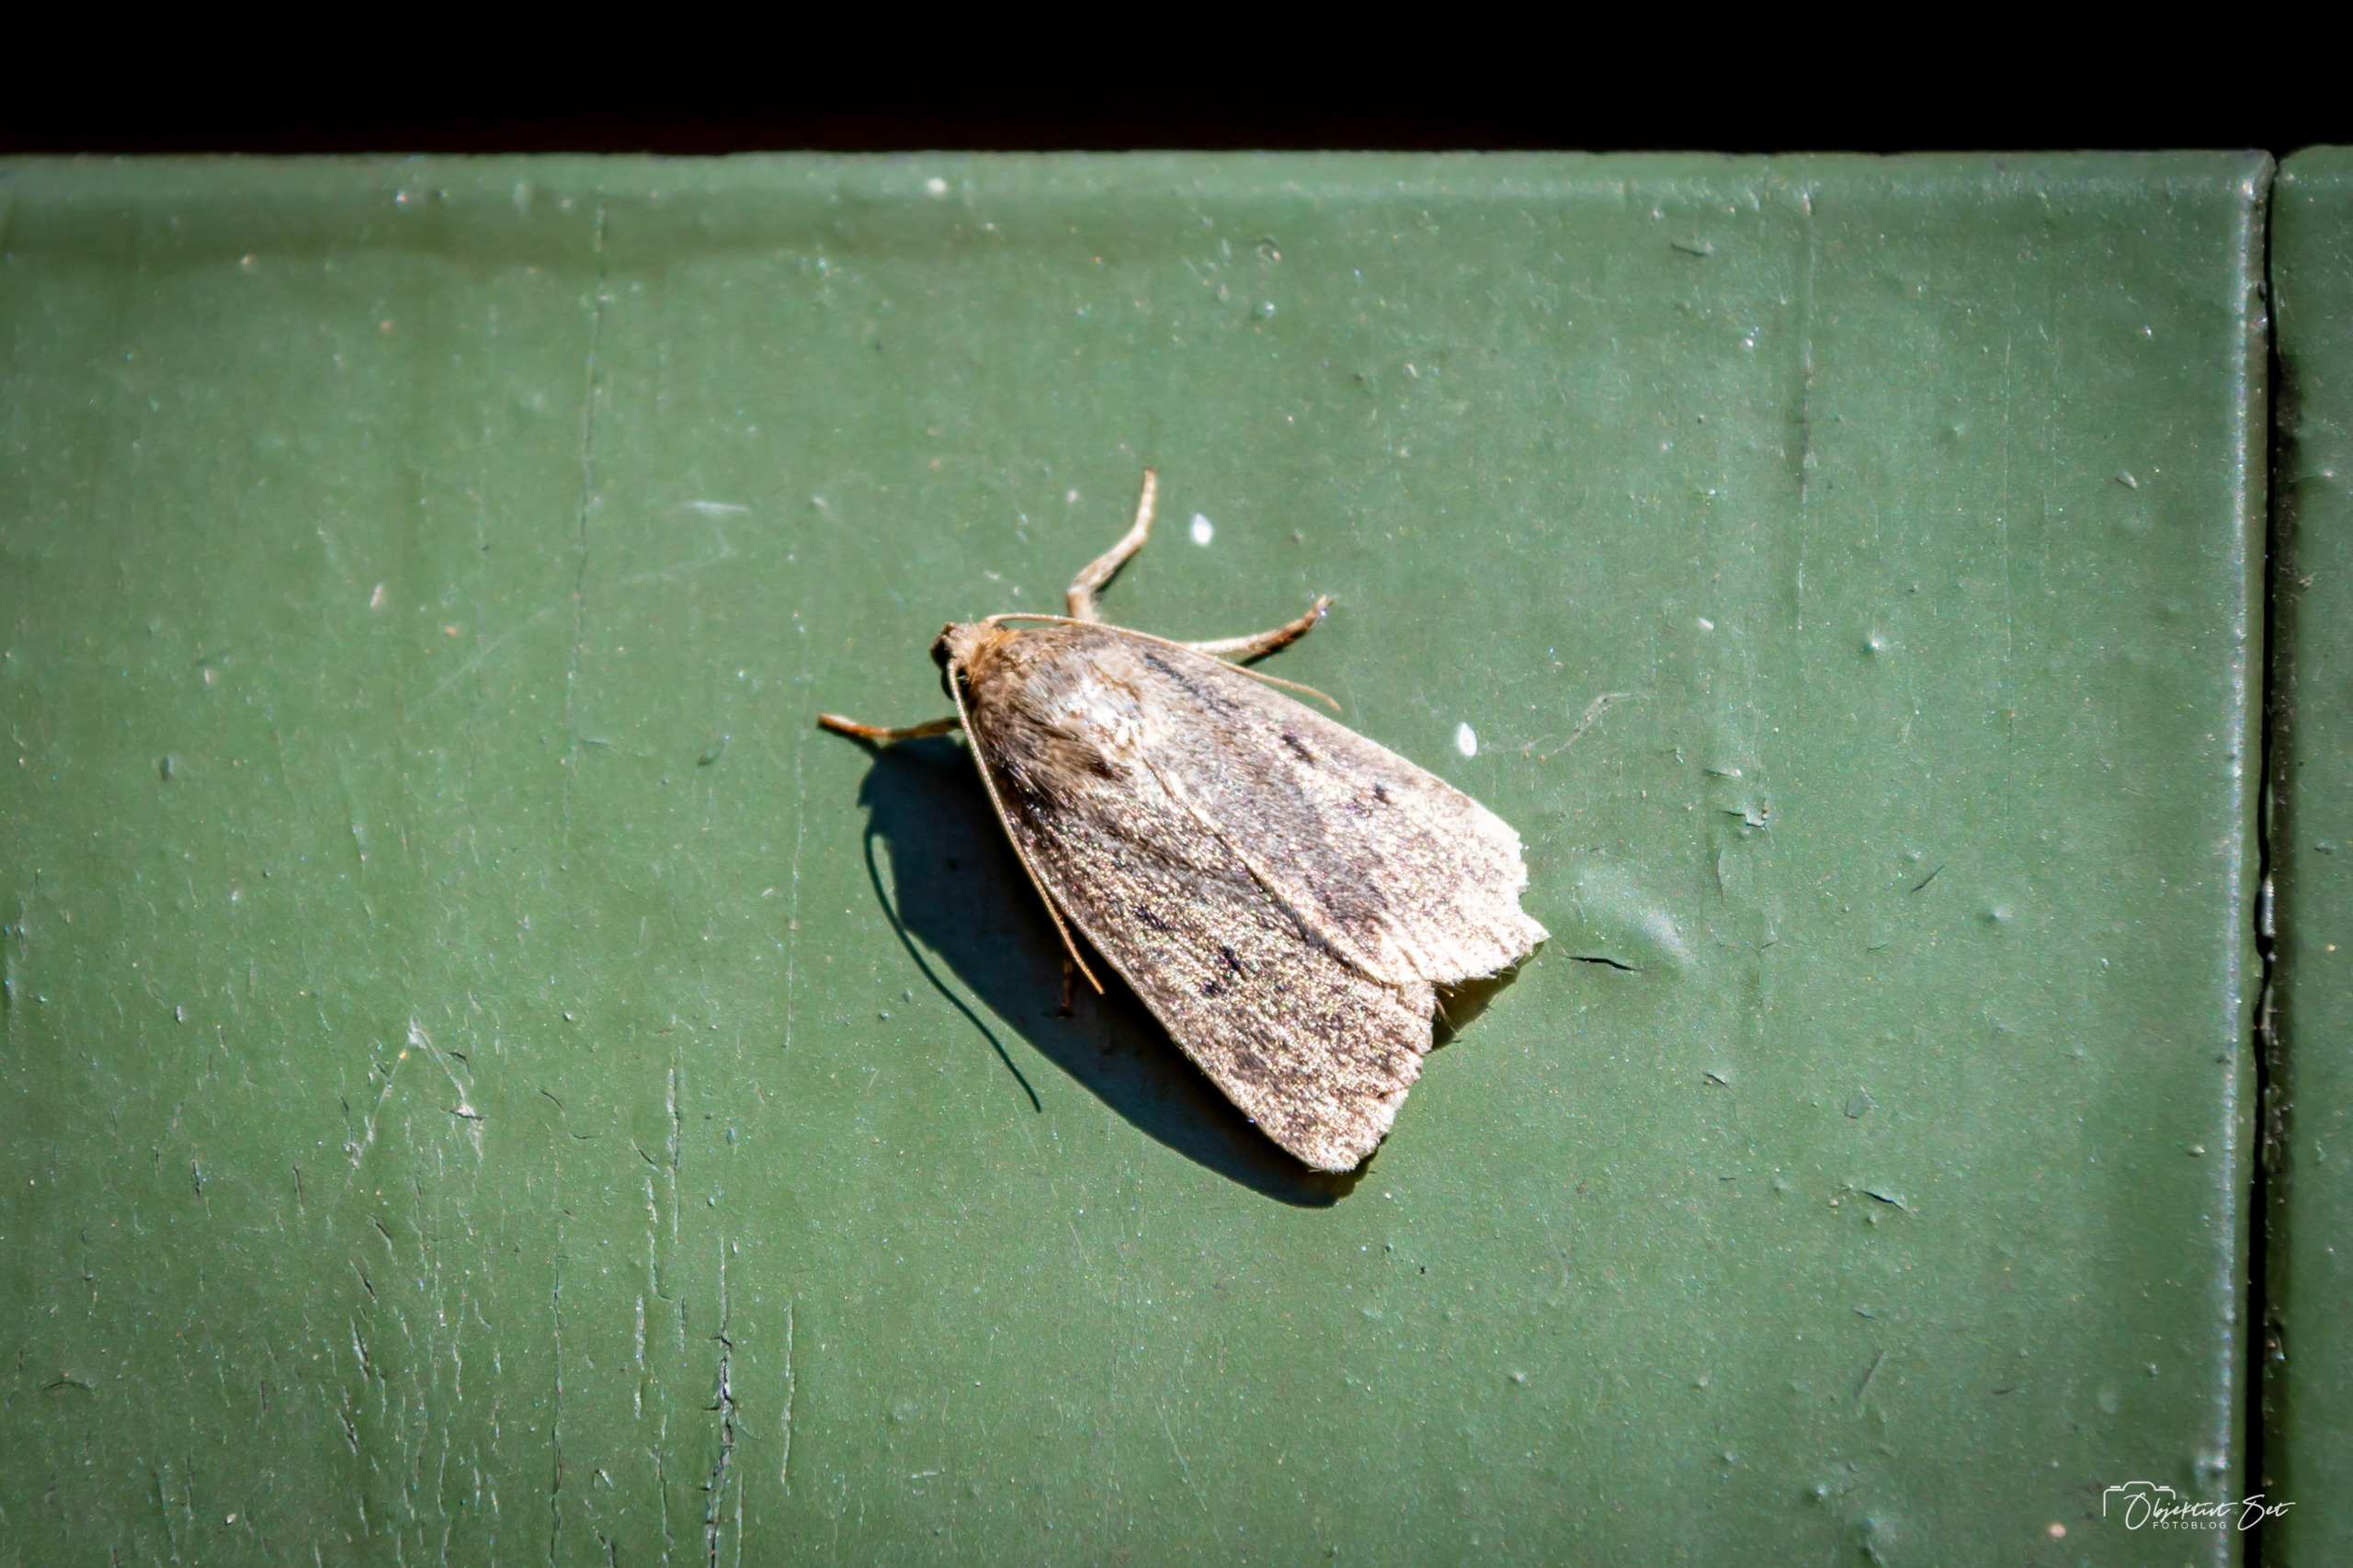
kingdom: Animalia
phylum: Arthropoda
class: Insecta
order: Lepidoptera
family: Noctuidae
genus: Amphipyra
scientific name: Amphipyra tragopoginis
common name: Blyantsugle
